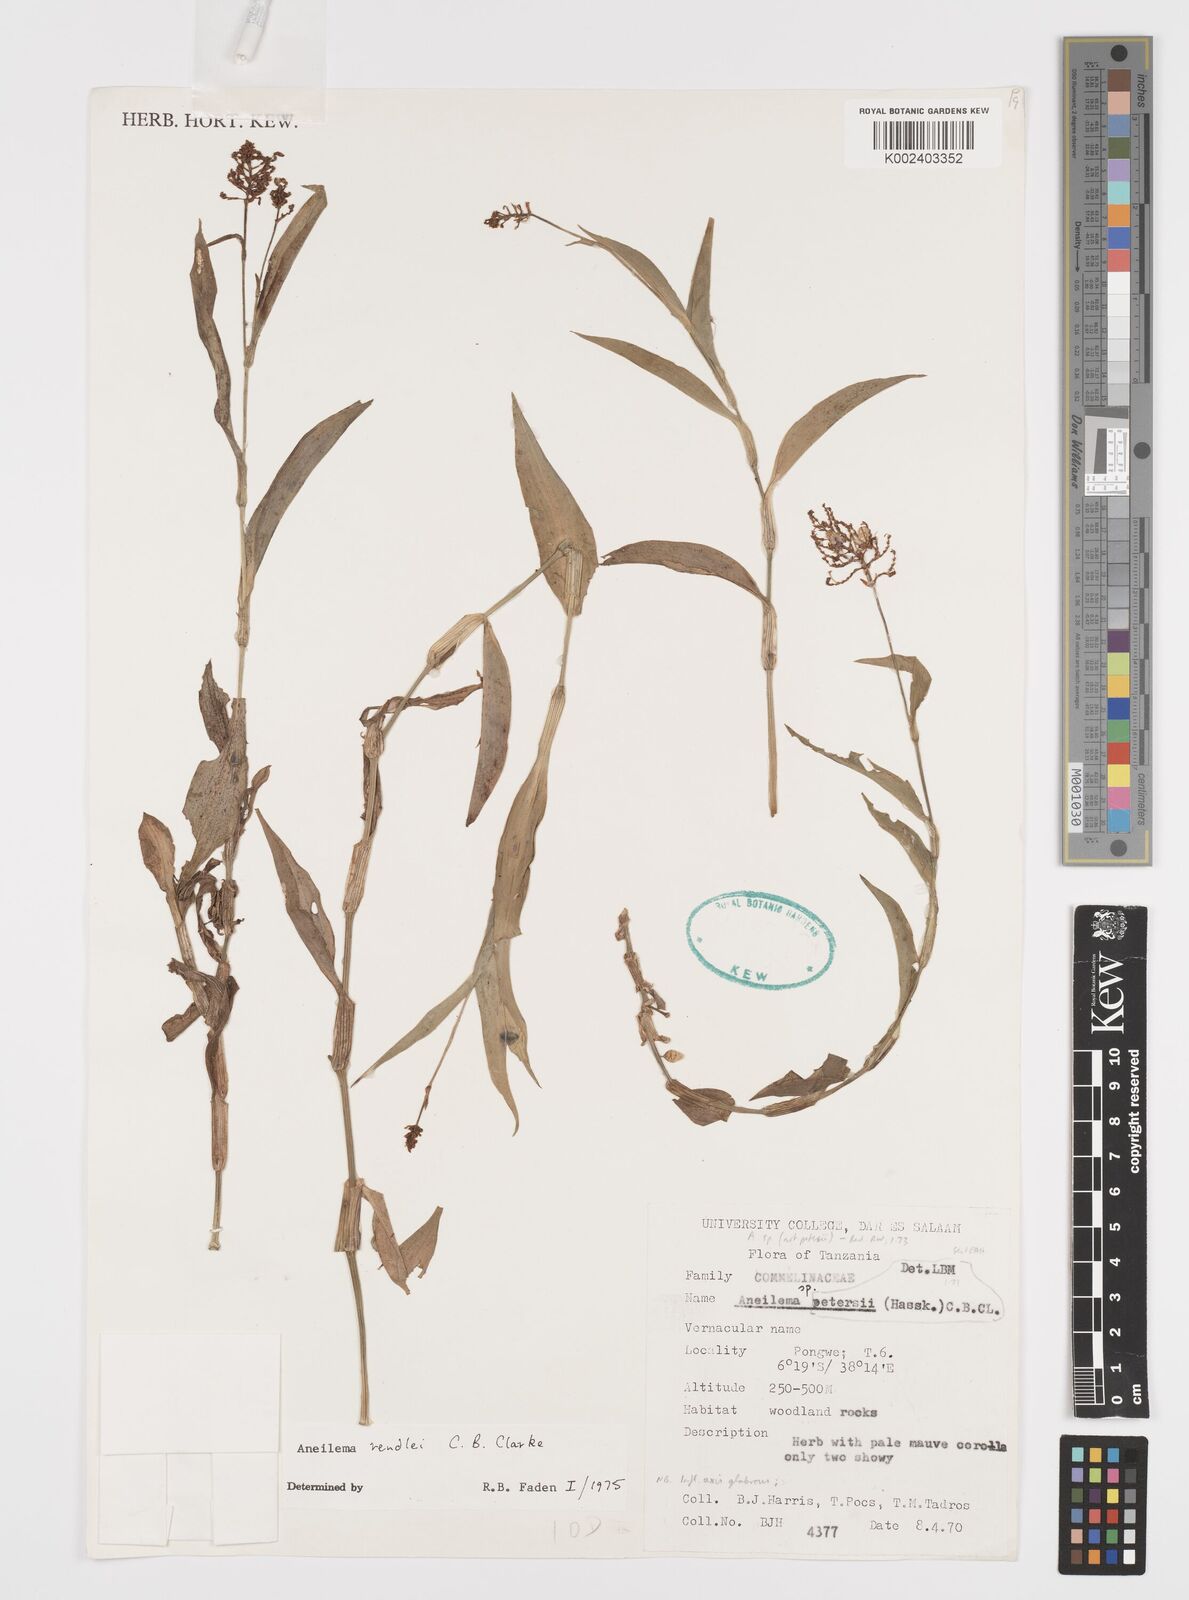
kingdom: Plantae
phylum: Tracheophyta
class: Liliopsida
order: Commelinales
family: Commelinaceae
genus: Aneilema
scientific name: Aneilema rendlei
